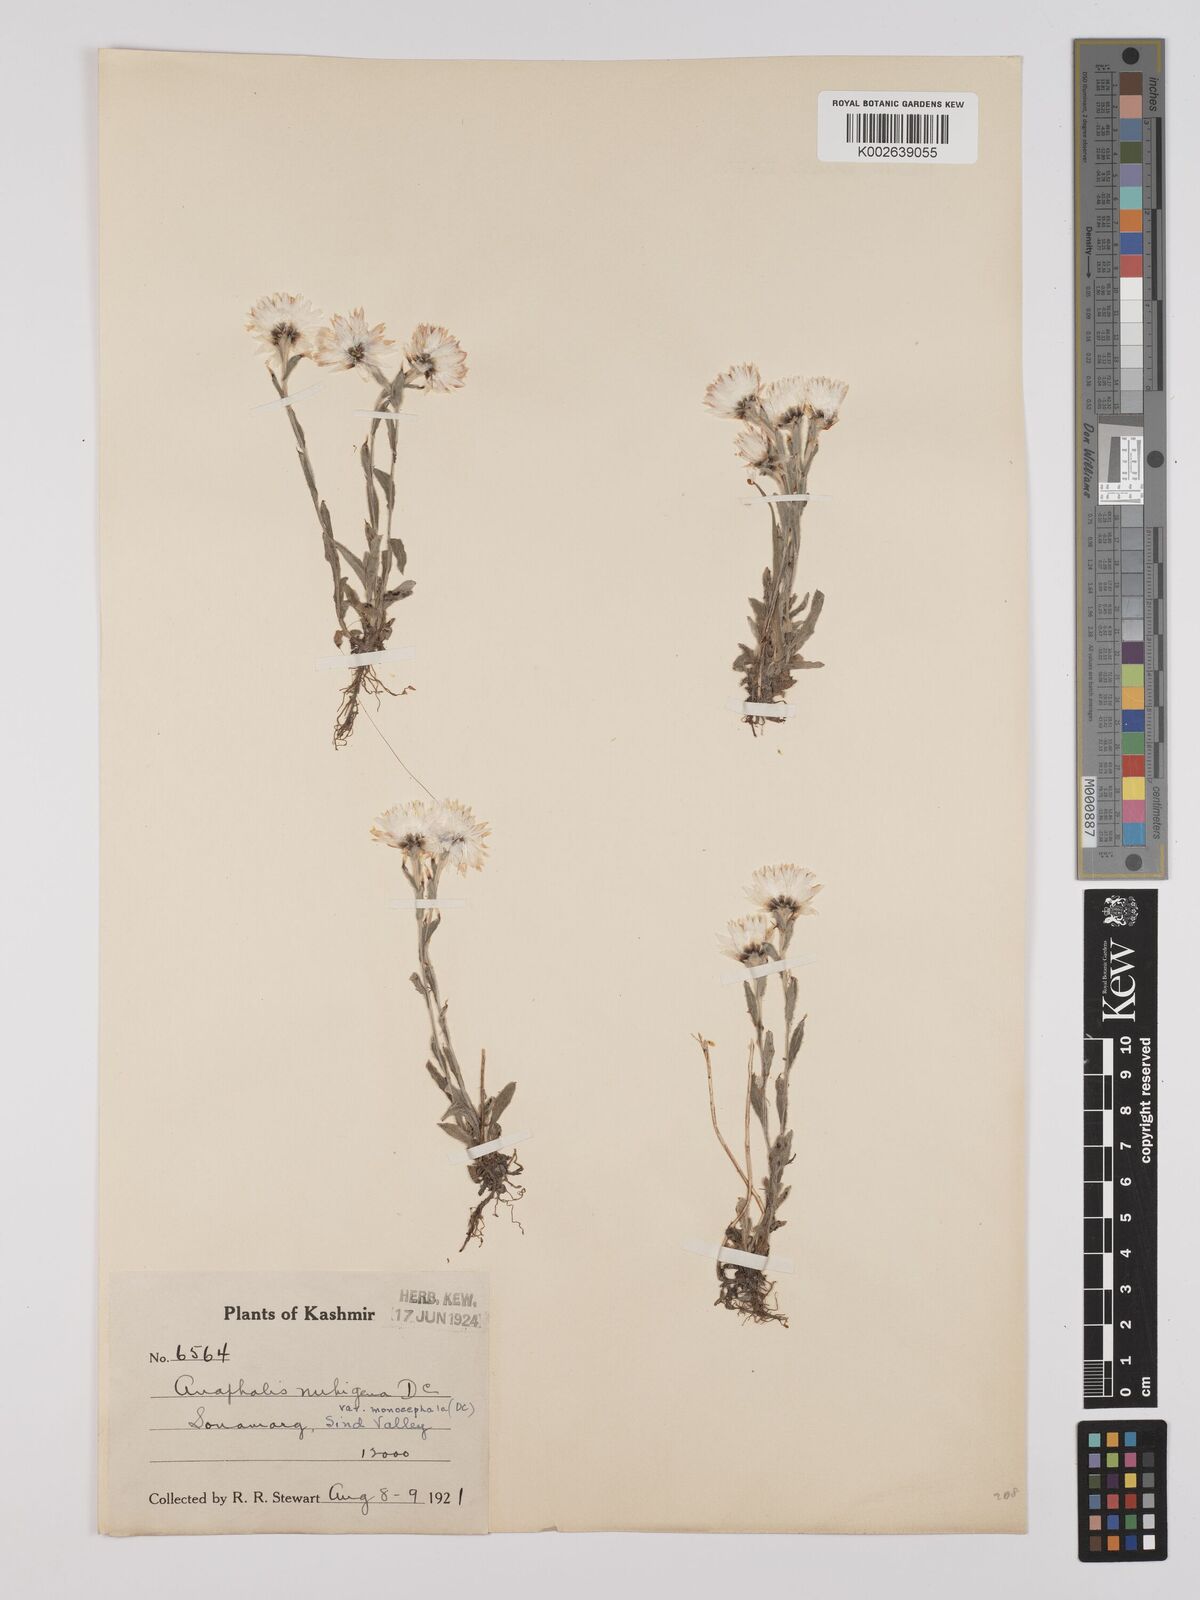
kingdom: Plantae
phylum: Tracheophyta
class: Magnoliopsida
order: Asterales
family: Asteraceae
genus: Anaphalis
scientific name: Anaphalis nepalensis
